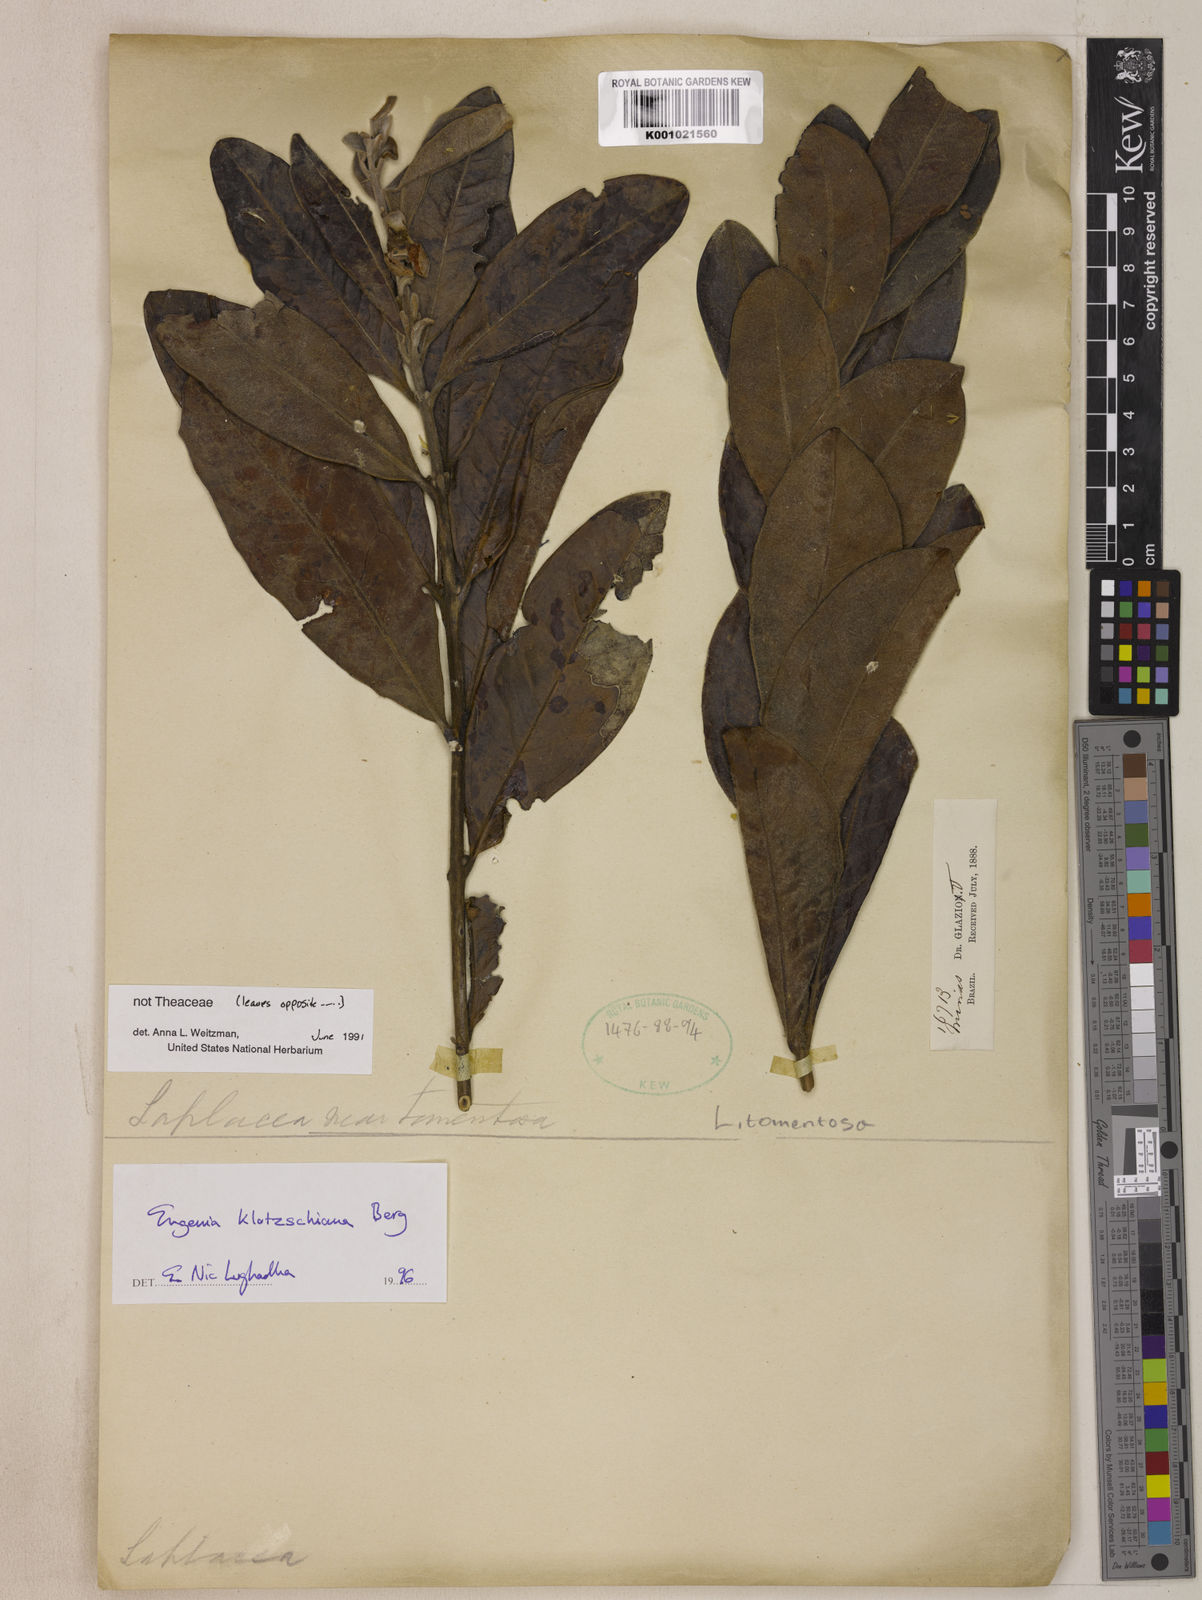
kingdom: Plantae
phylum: Tracheophyta
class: Magnoliopsida
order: Myrtales
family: Myrtaceae
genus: Eugenia
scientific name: Eugenia klotzschiana
